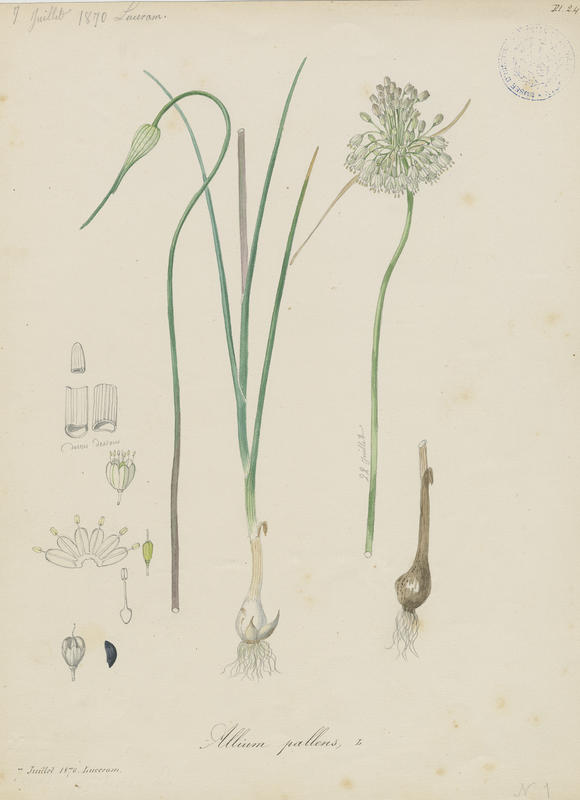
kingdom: Plantae
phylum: Tracheophyta
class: Liliopsida
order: Asparagales
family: Amaryllidaceae
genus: Allium
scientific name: Allium pallens
